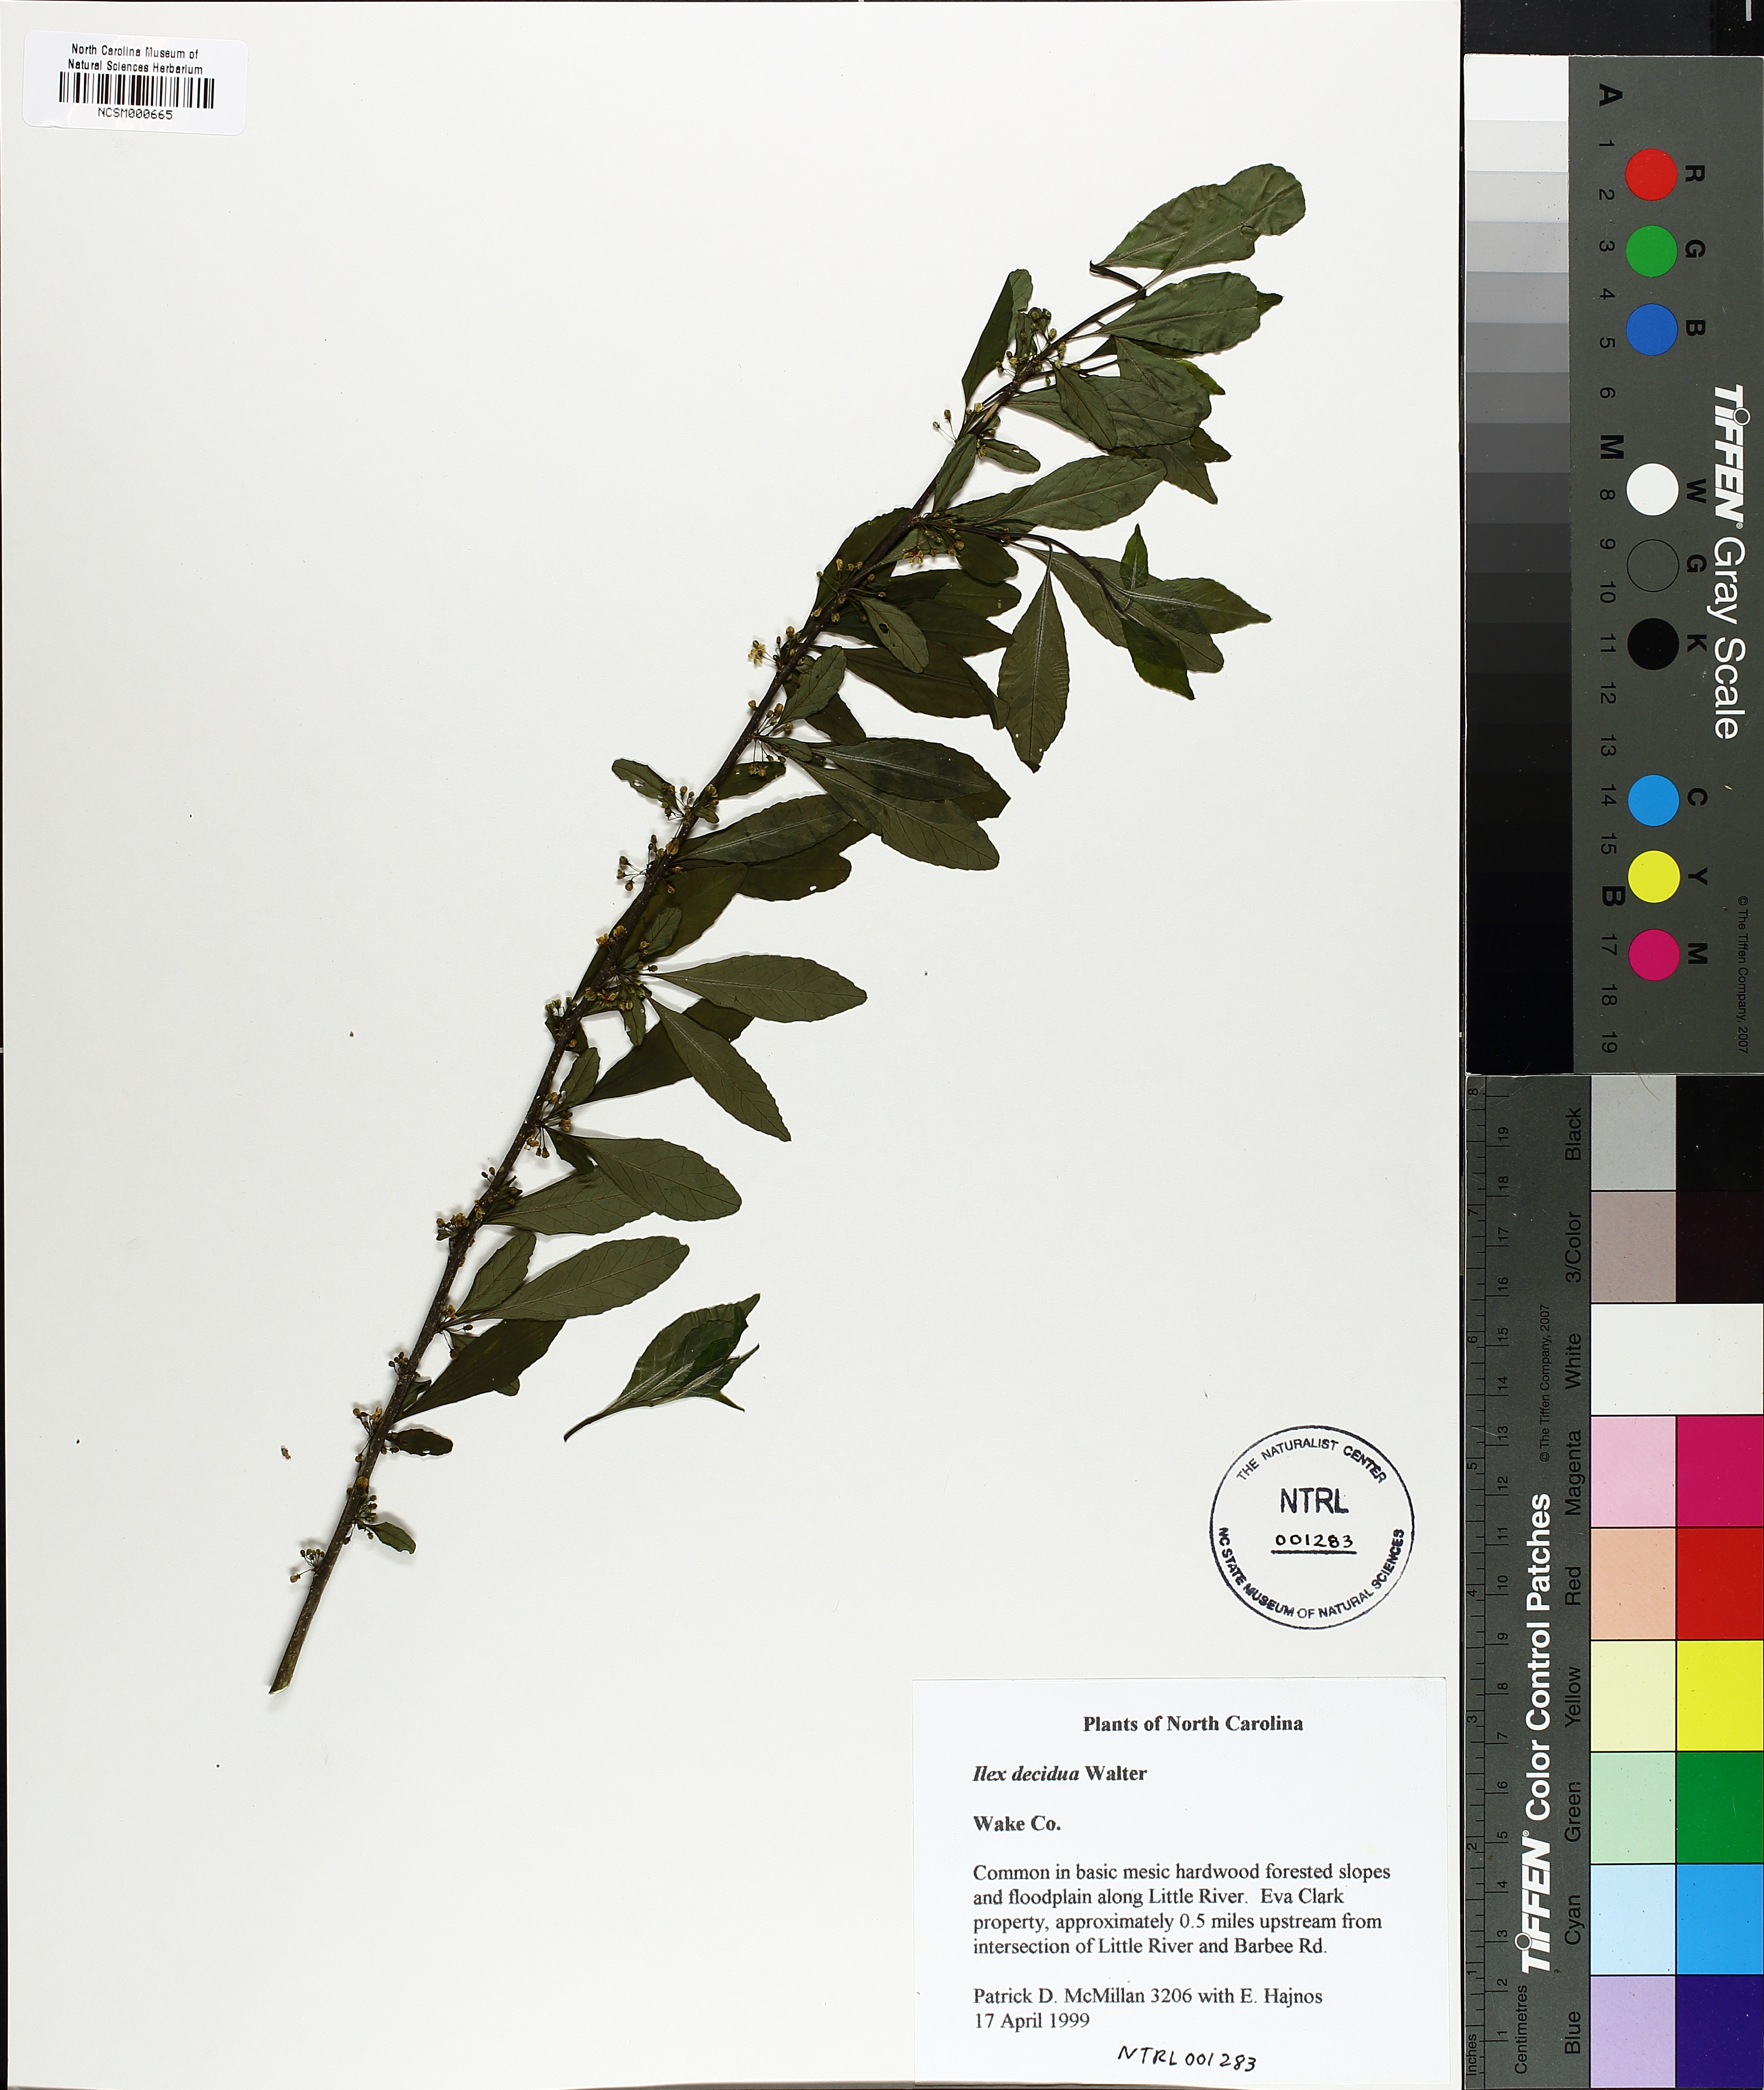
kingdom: Plantae
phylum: Tracheophyta
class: Magnoliopsida
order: Aquifoliales
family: Aquifoliaceae
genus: Ilex
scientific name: Ilex decidua
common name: Possum-haw
